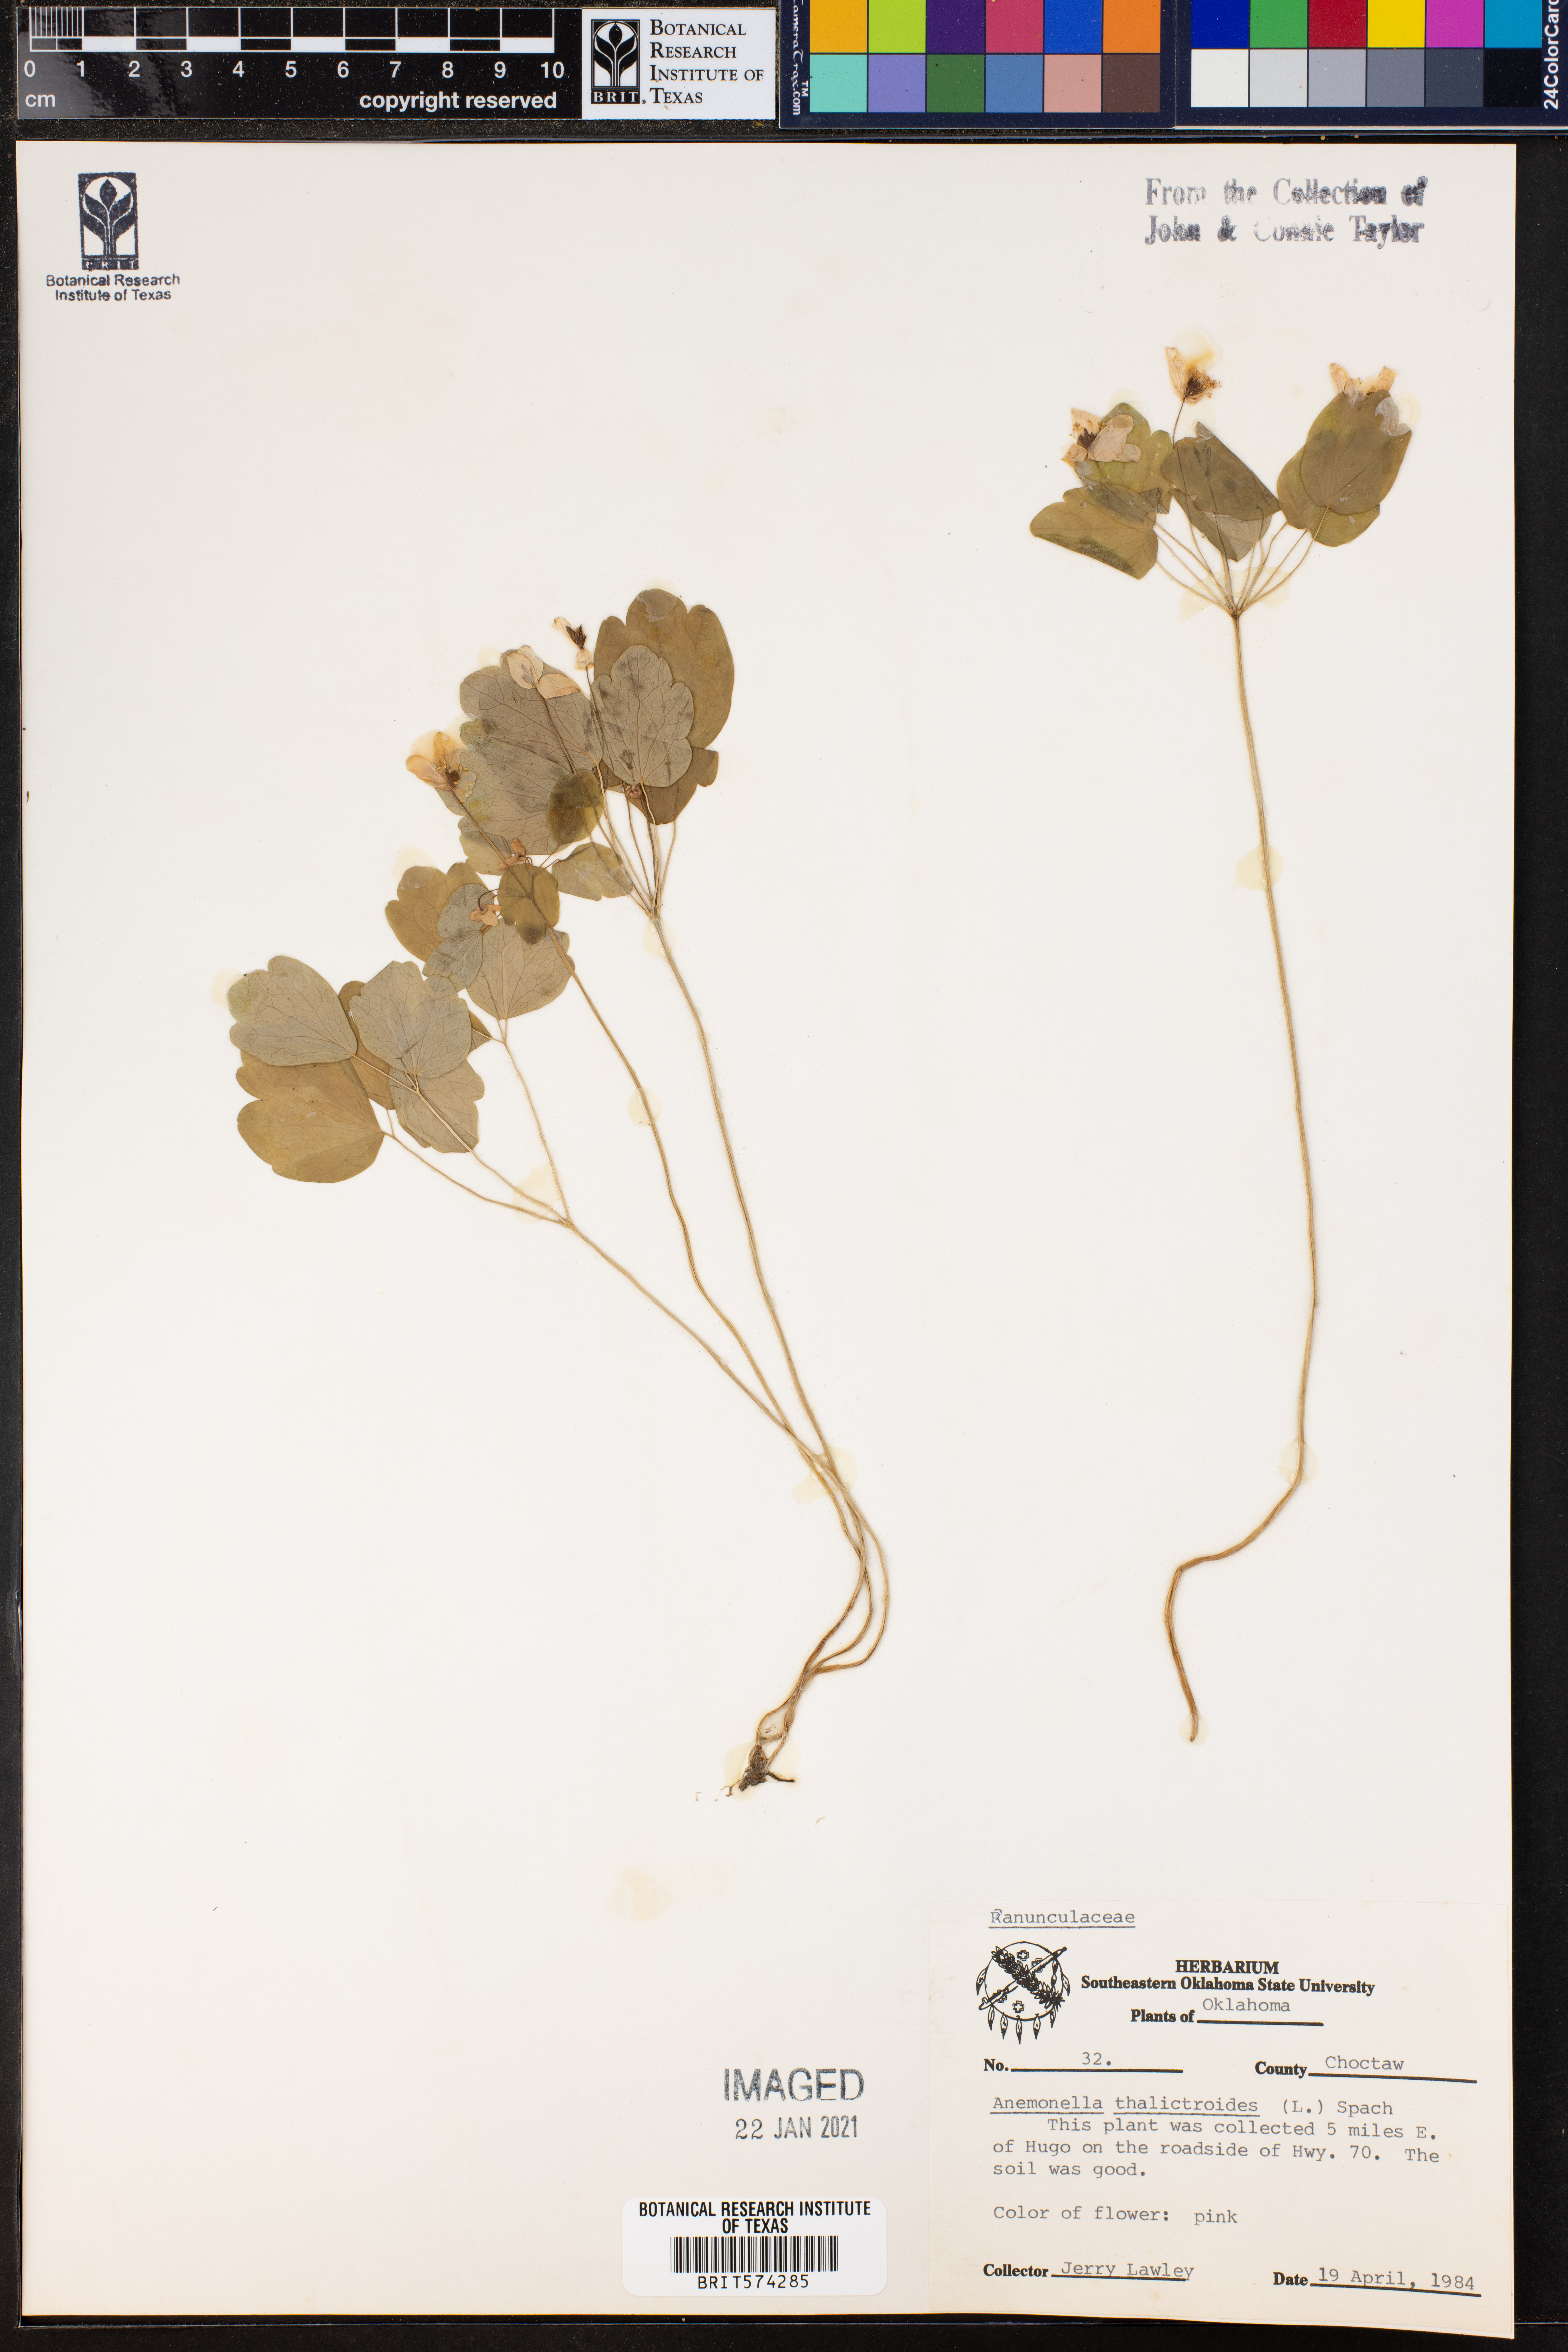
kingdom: Plantae
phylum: Tracheophyta
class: Magnoliopsida
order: Ranunculales
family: Ranunculaceae
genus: Thalictrum
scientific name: Thalictrum thalictroides
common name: Rue-anemone
